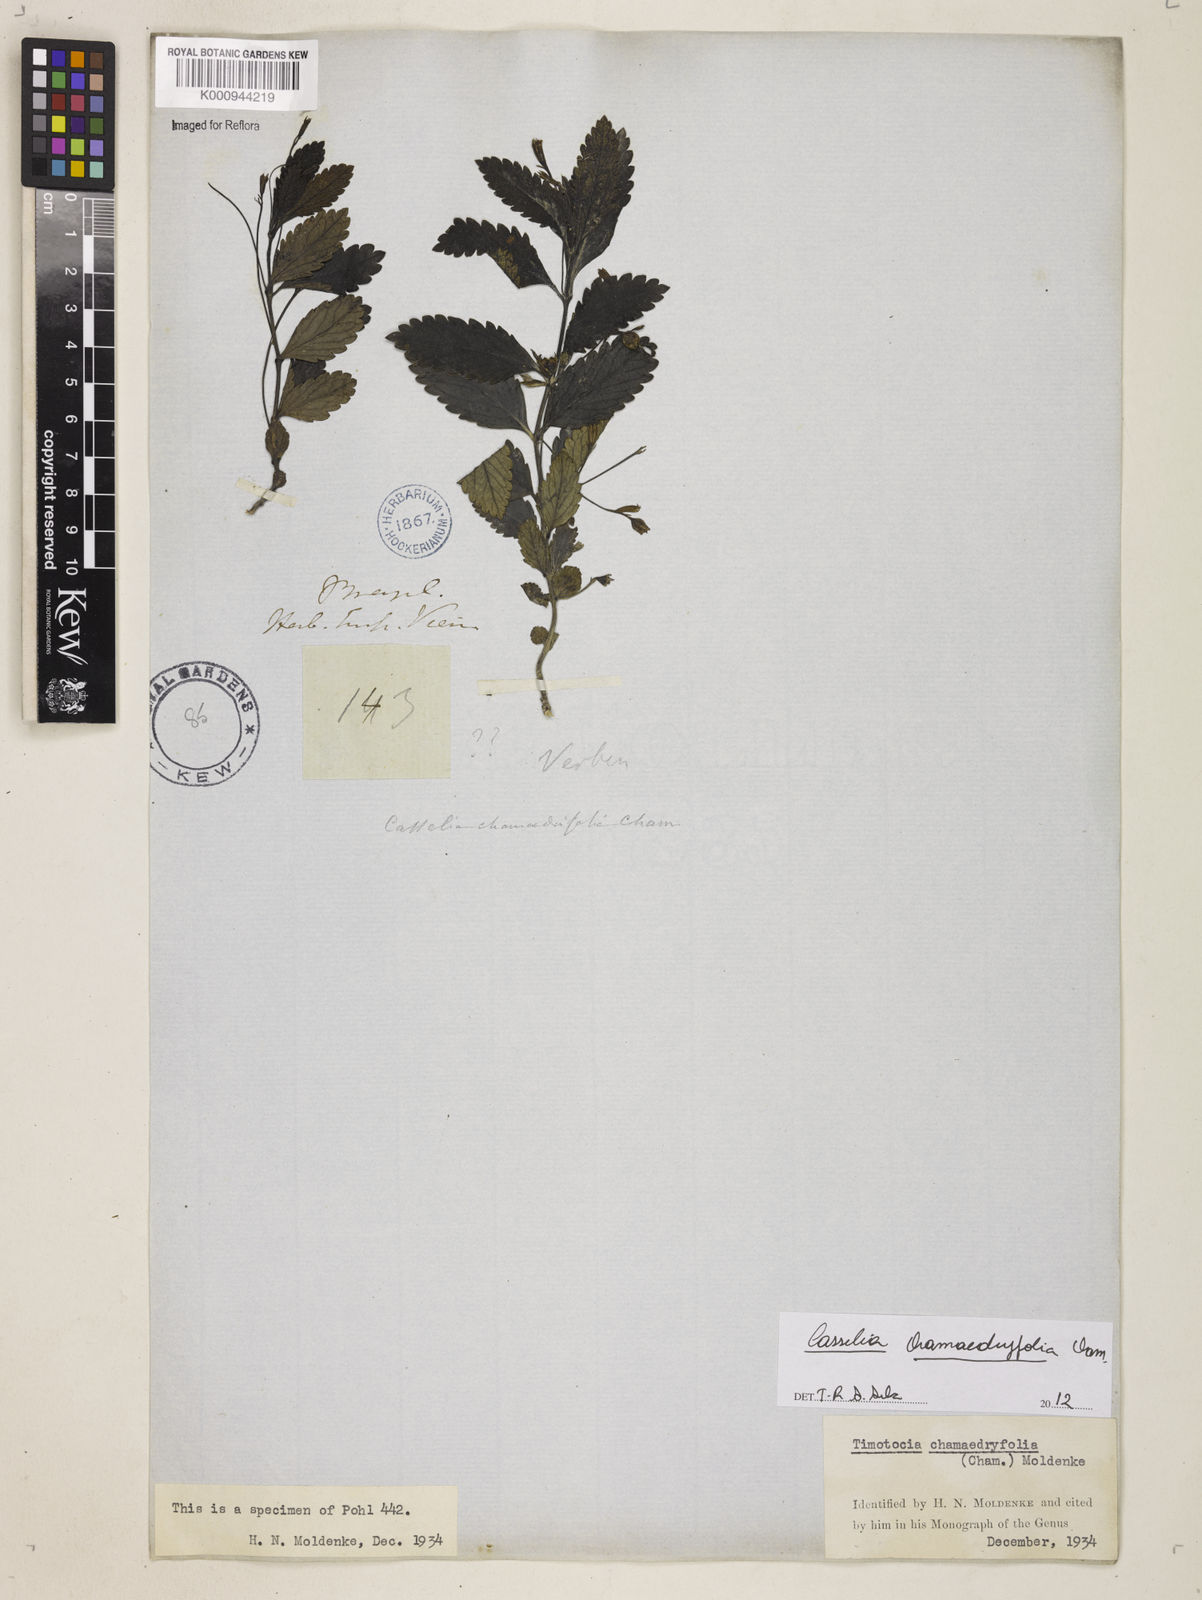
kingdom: Plantae
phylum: Tracheophyta
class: Magnoliopsida
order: Lamiales
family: Verbenaceae
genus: Casselia
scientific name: Casselia chamaedryfolia
